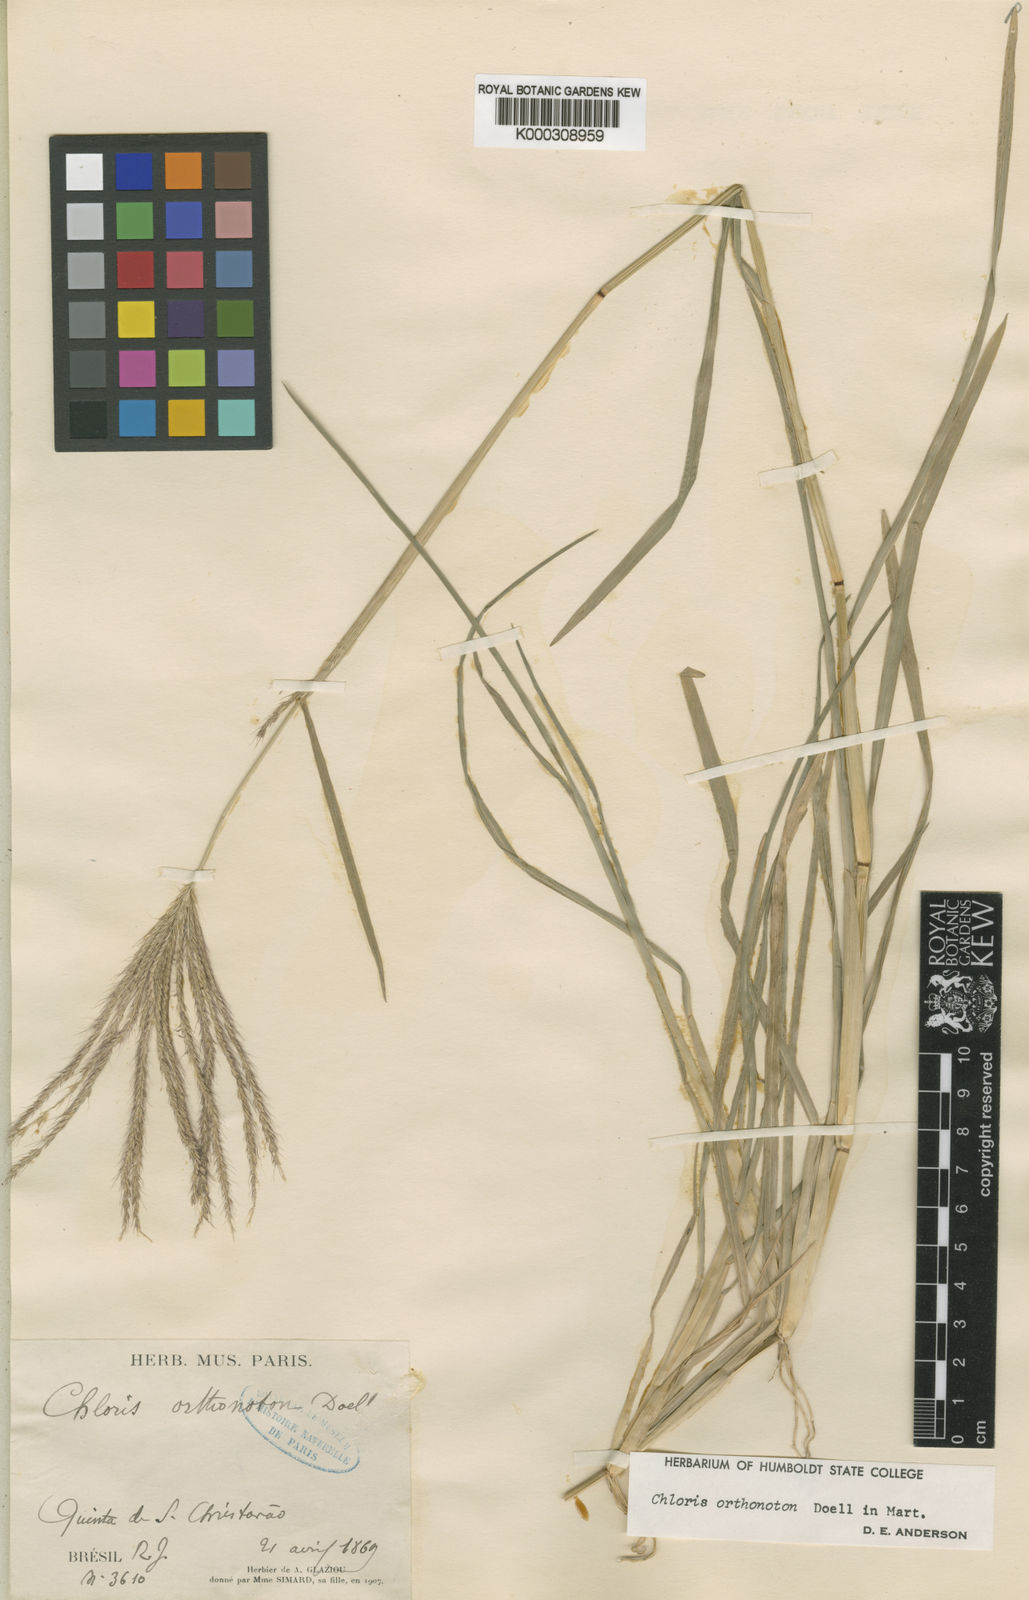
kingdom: Plantae
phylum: Tracheophyta
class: Liliopsida
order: Poales
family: Poaceae
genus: Chloris
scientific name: Chloris
